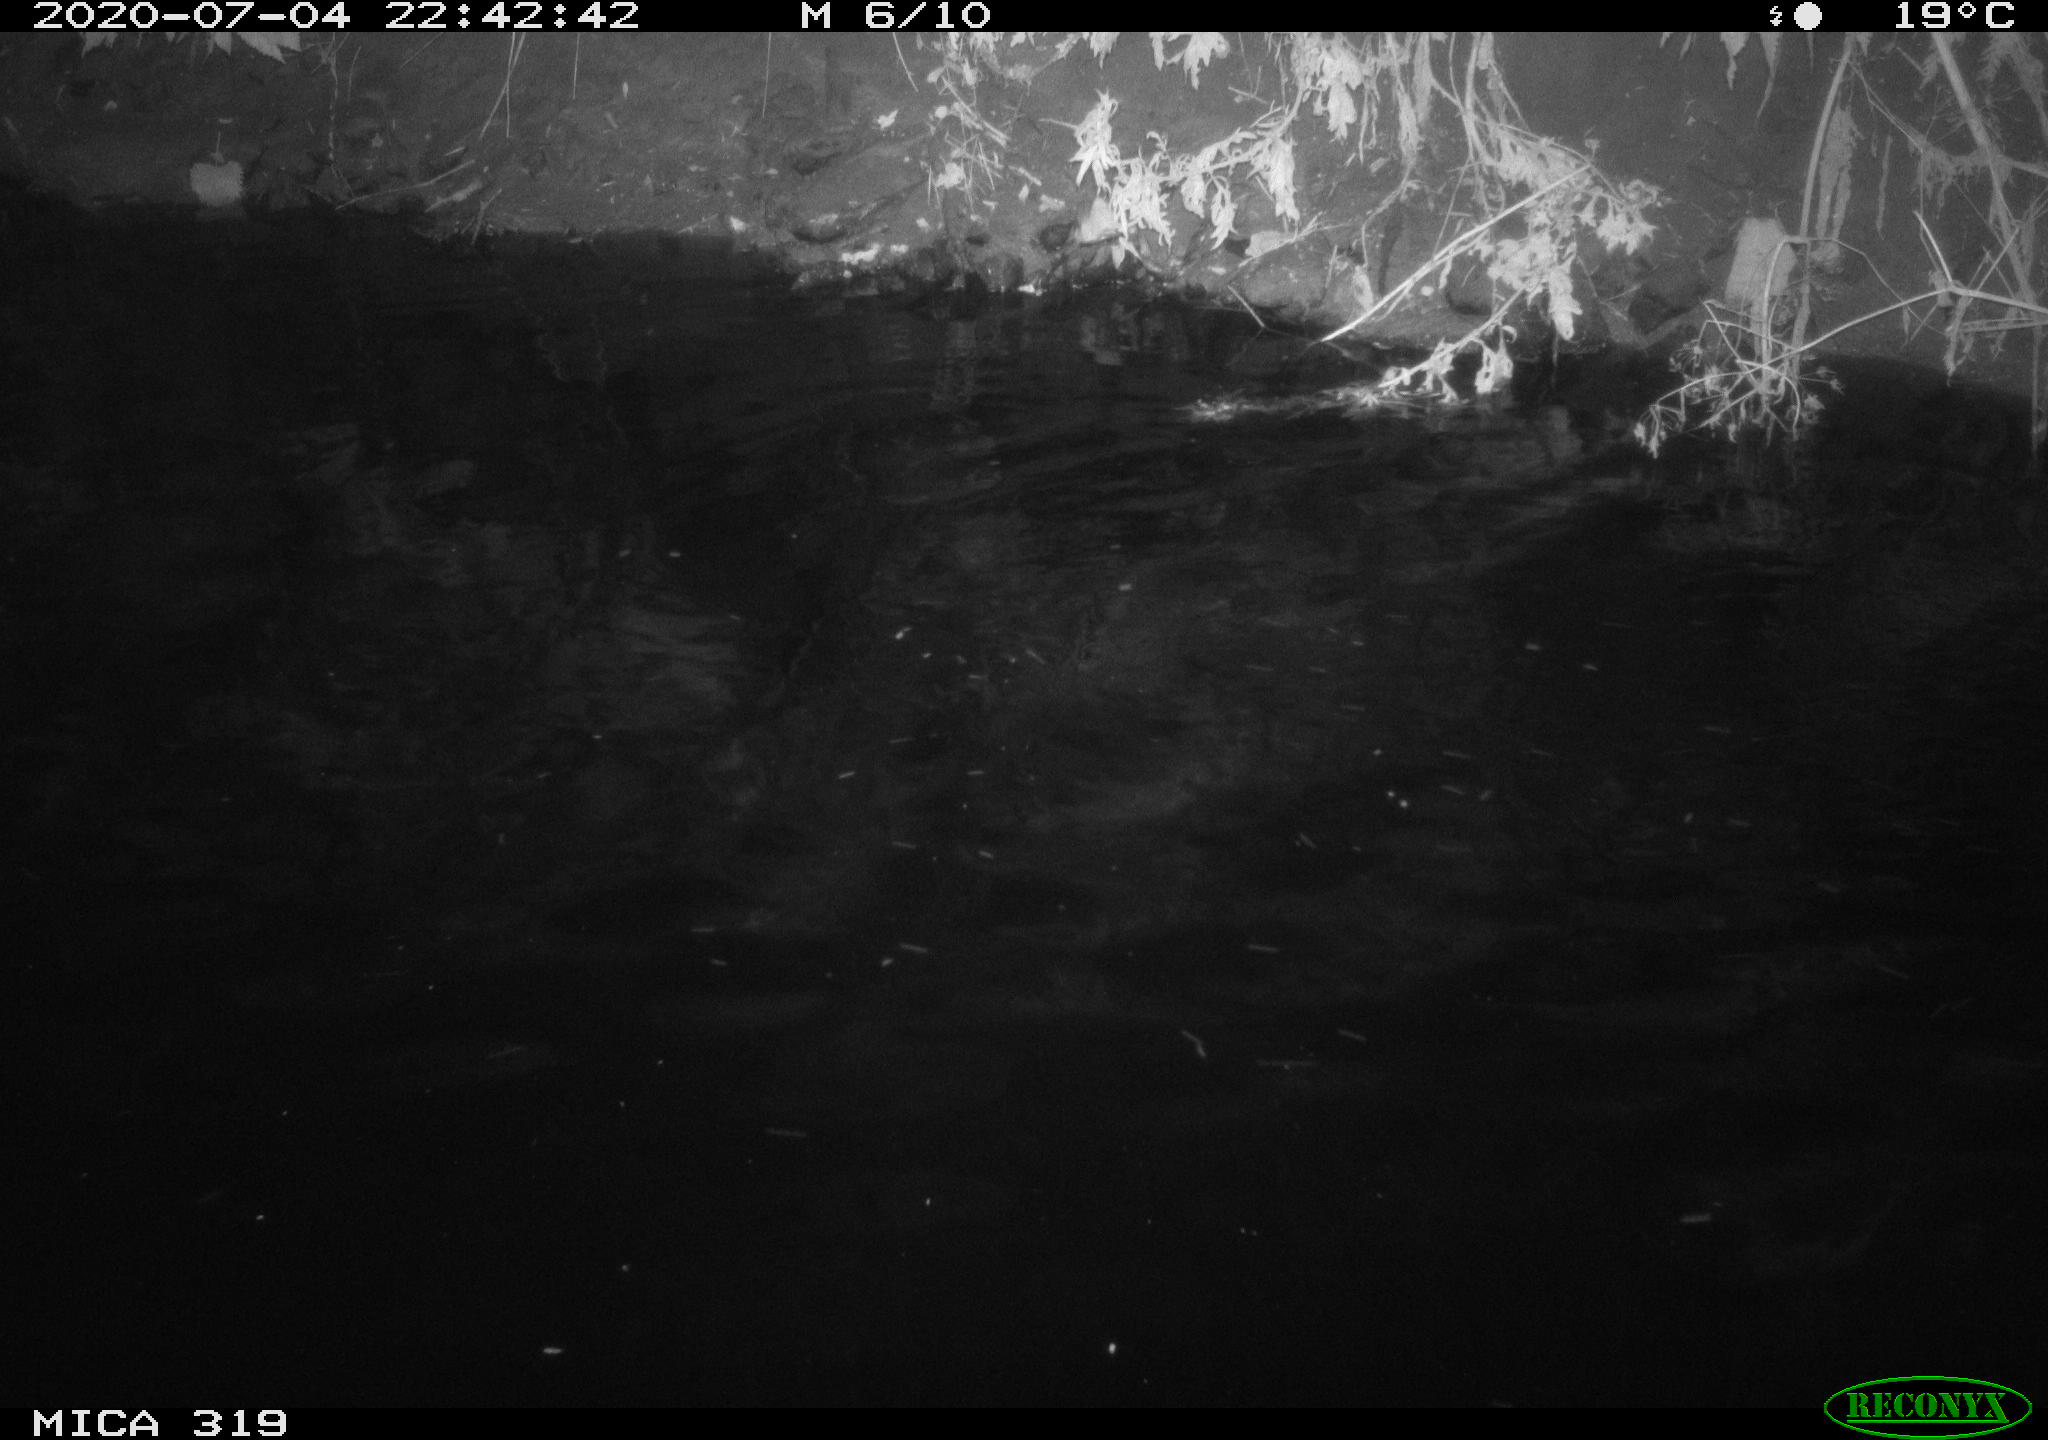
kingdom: Animalia
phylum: Chordata
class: Aves
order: Anseriformes
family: Anatidae
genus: Anas
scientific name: Anas platyrhynchos
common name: Mallard
